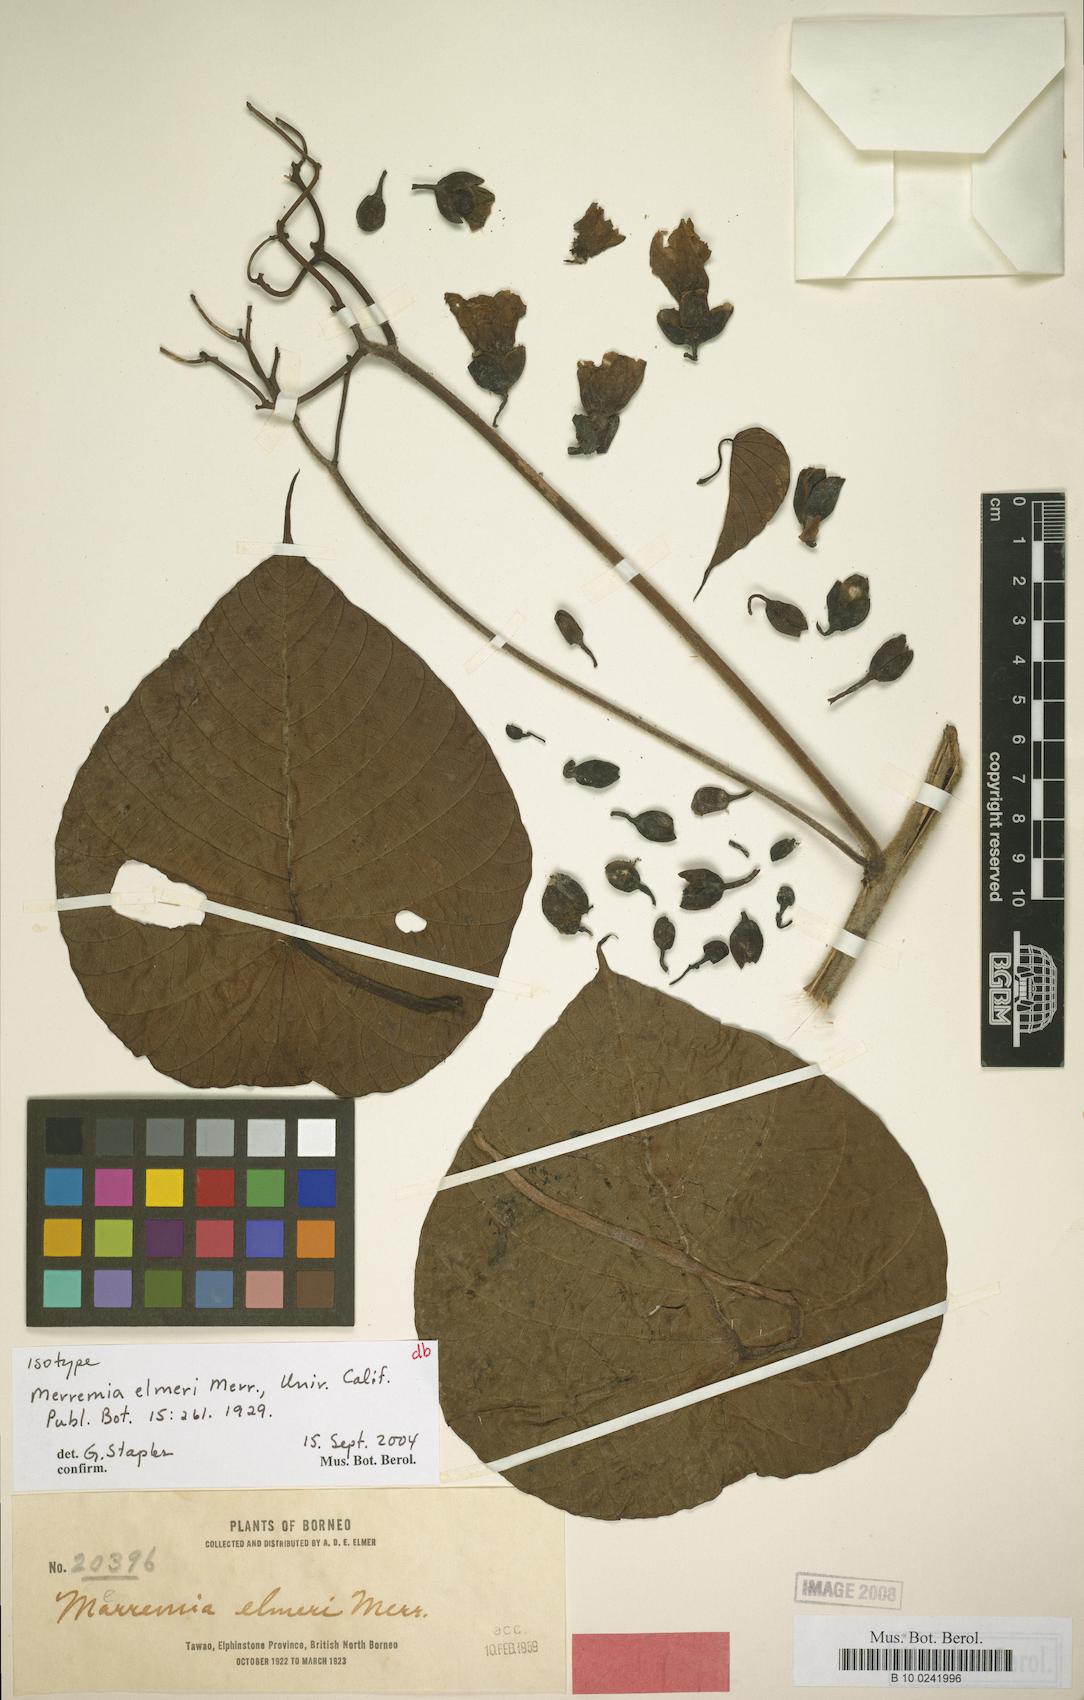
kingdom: Plantae
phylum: Tracheophyta
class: Magnoliopsida
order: Solanales
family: Convolvulaceae
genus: Decalobanthus
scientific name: Decalobanthus elmeri
